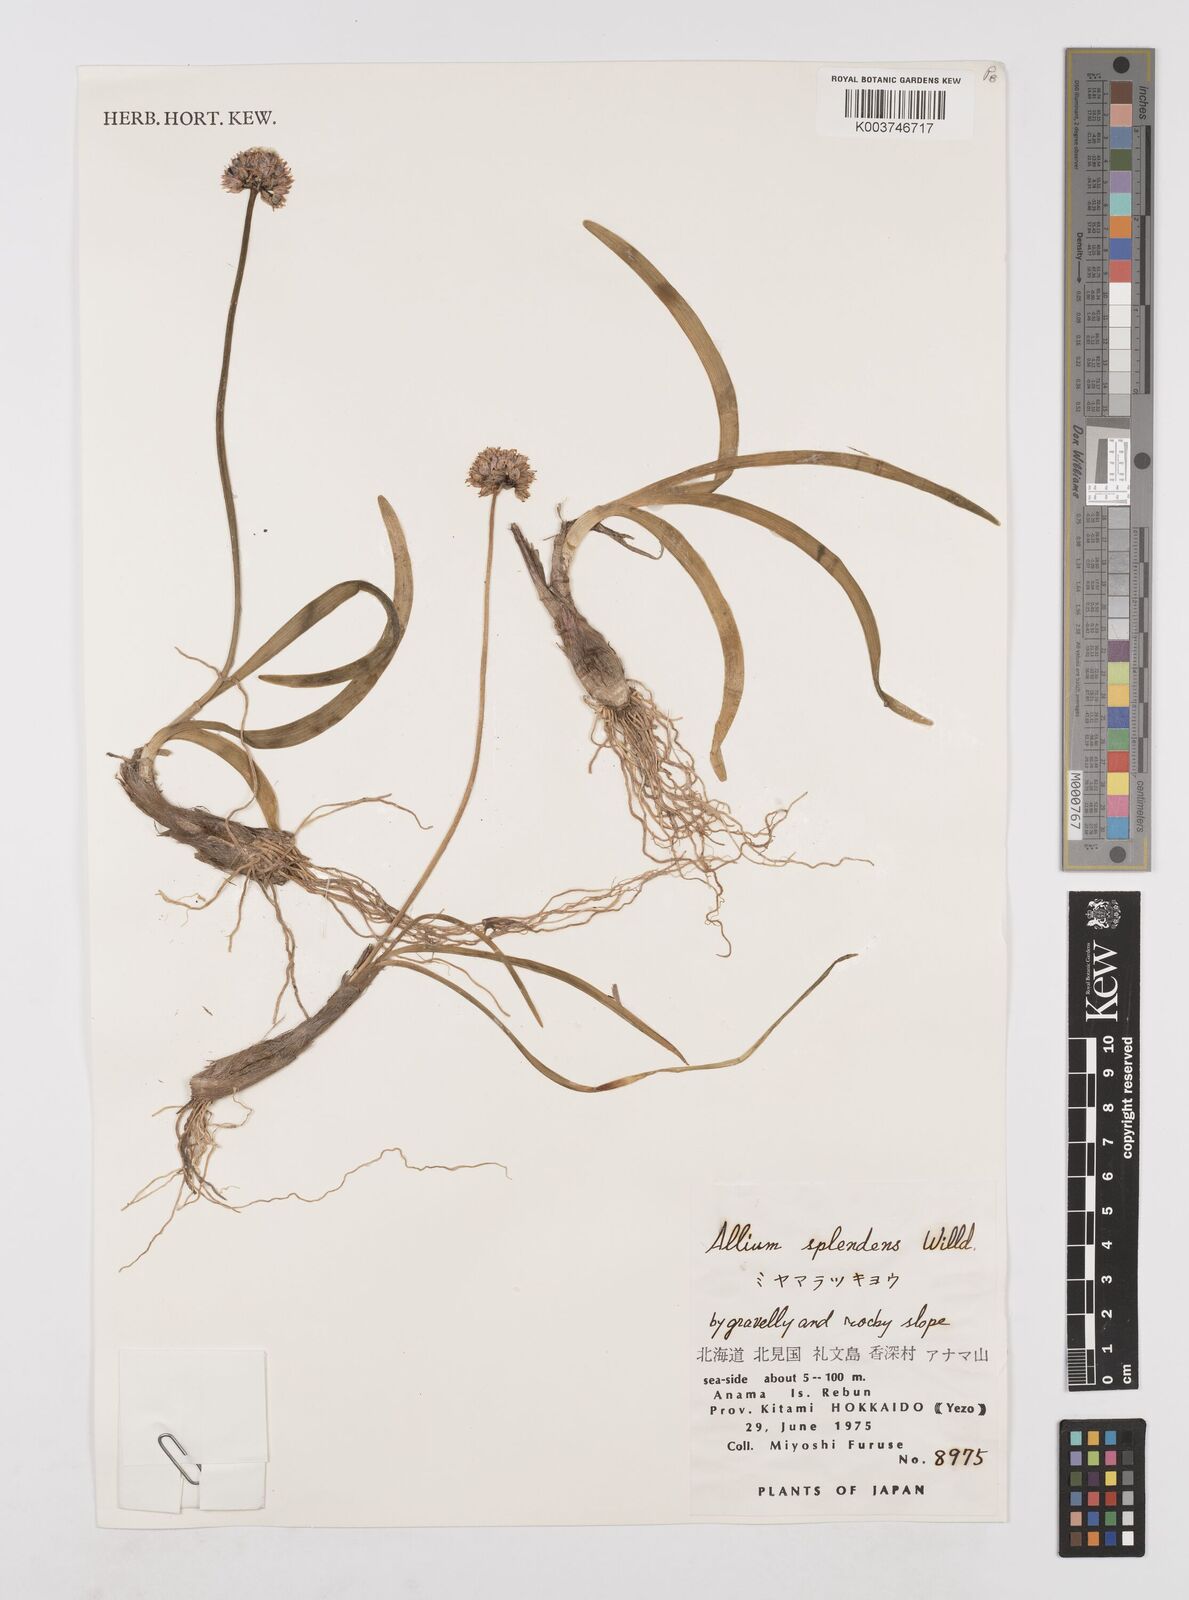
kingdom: Plantae
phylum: Tracheophyta
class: Liliopsida
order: Asparagales
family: Amaryllidaceae
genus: Allium
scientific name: Allium splendens
